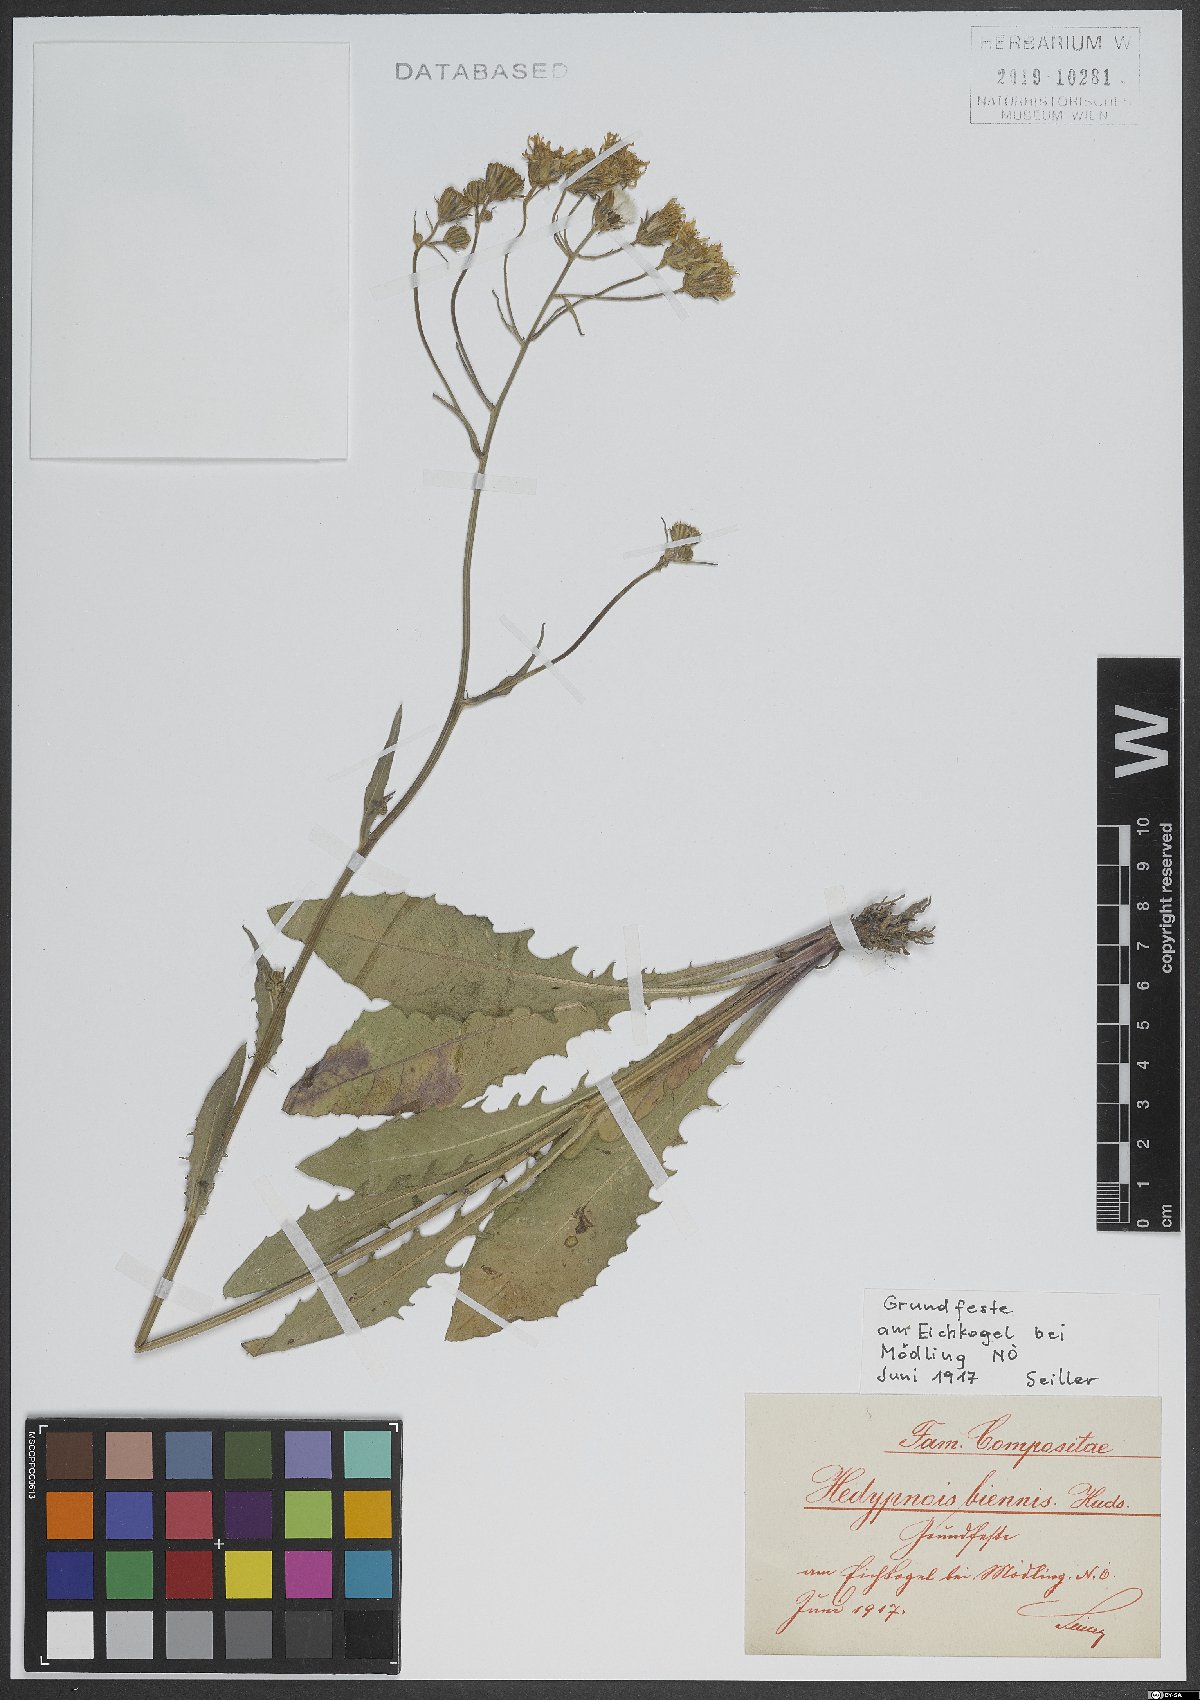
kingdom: Plantae
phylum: Tracheophyta
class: Magnoliopsida
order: Asterales
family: Asteraceae
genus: Crepis
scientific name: Crepis biennis
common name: Rough hawk's-beard
